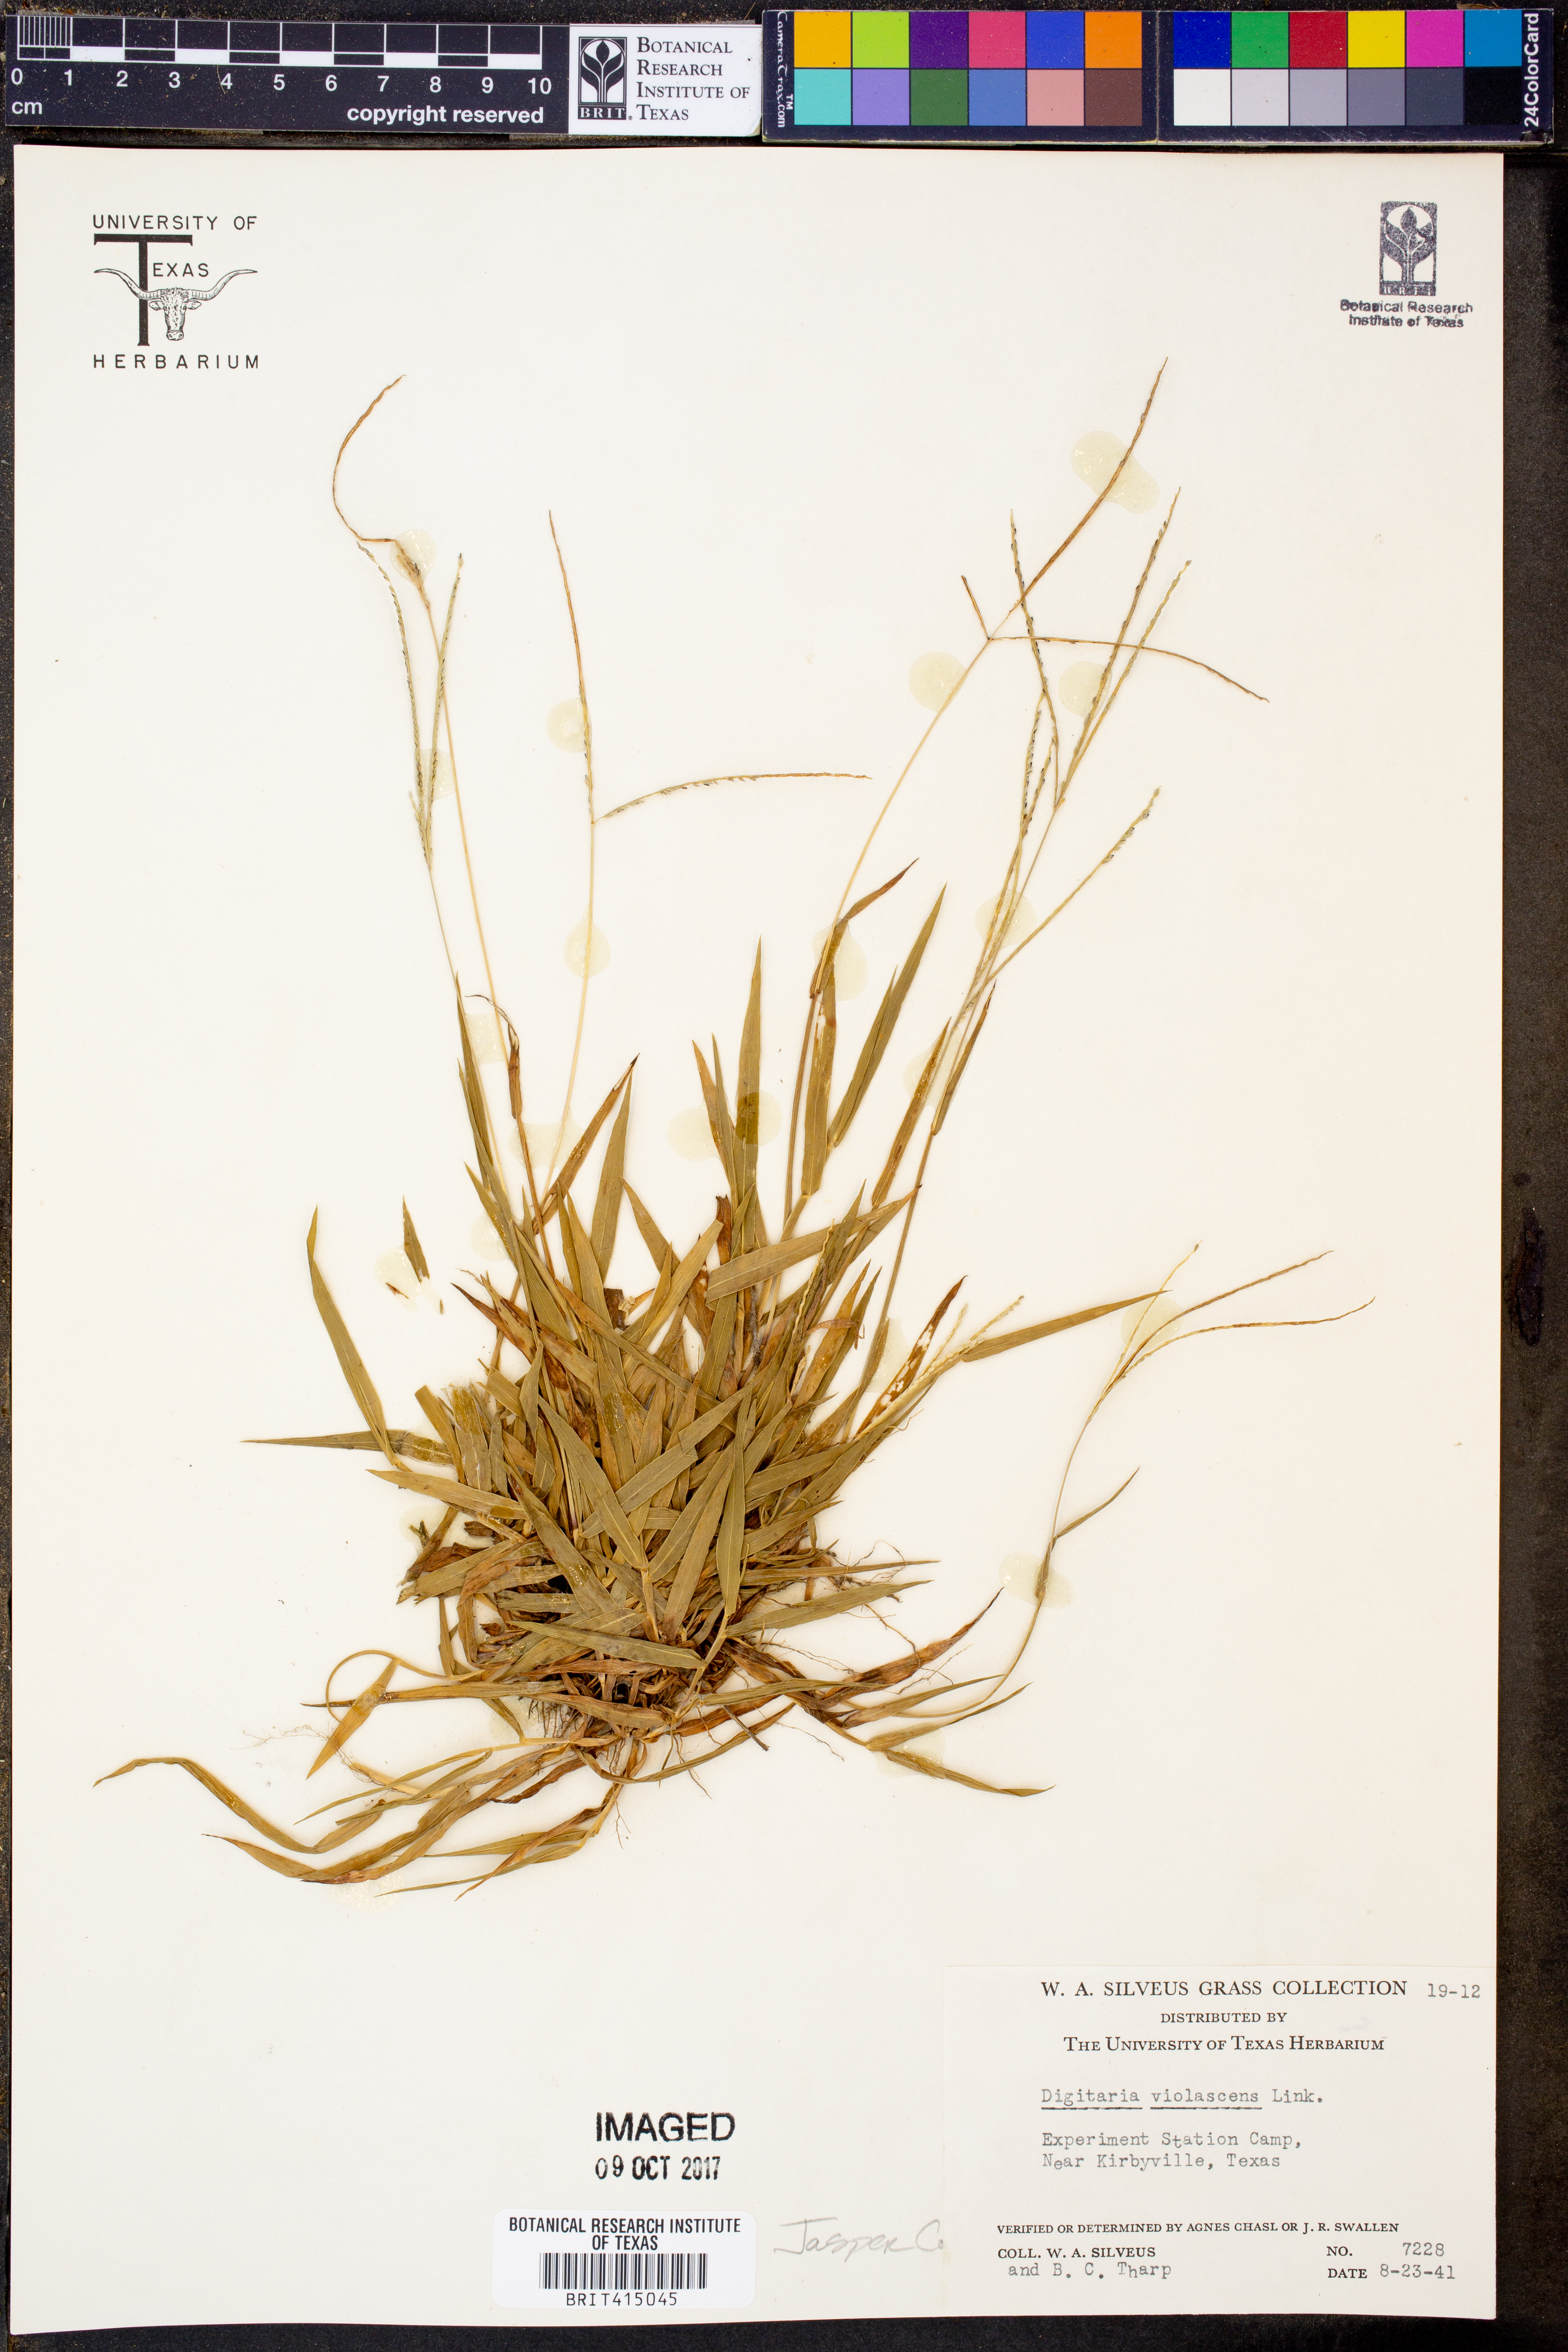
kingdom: Plantae
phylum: Tracheophyta
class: Liliopsida
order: Poales
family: Poaceae
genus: Digitaria
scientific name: Digitaria violascens
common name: Violet crabgrass
